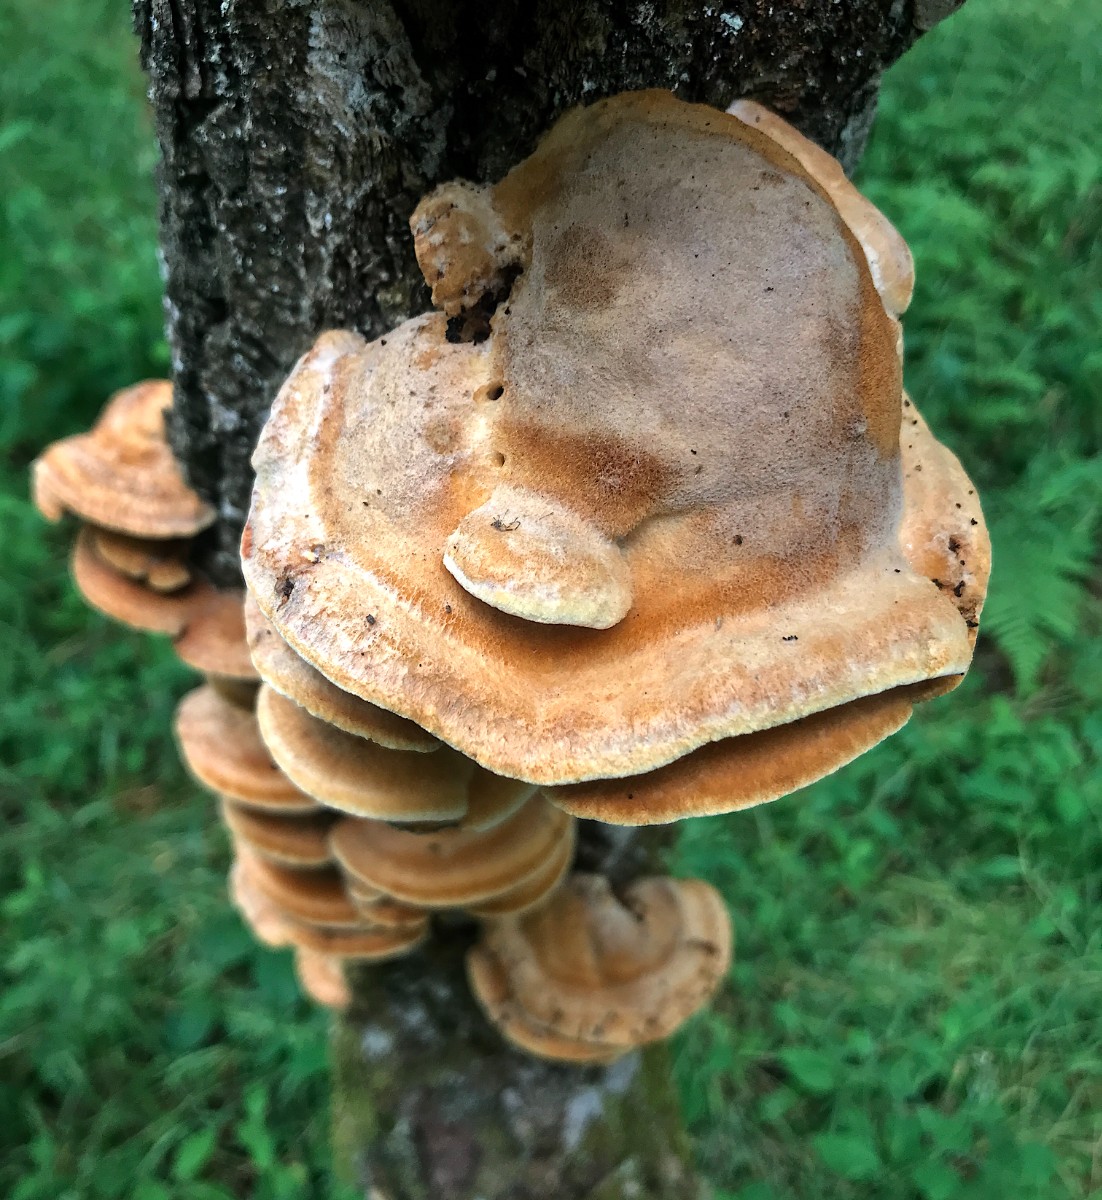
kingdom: Fungi
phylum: Basidiomycota
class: Agaricomycetes
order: Hymenochaetales
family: Hymenochaetaceae
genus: Inocutis
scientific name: Inocutis rheades
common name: ræve-spejlporesvamp
